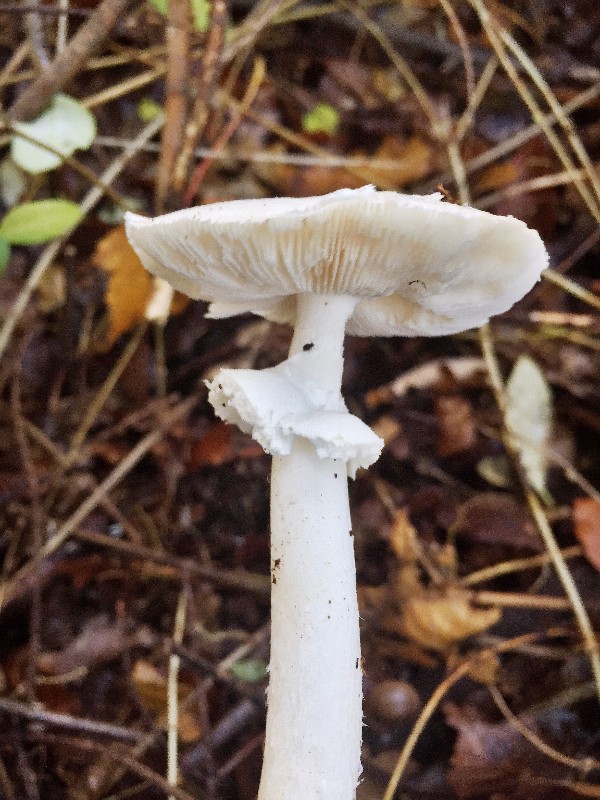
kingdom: Fungi
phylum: Basidiomycota
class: Agaricomycetes
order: Agaricales
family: Amanitaceae
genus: Amanita
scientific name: Amanita citrina
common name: kugleknoldet fluesvamp
